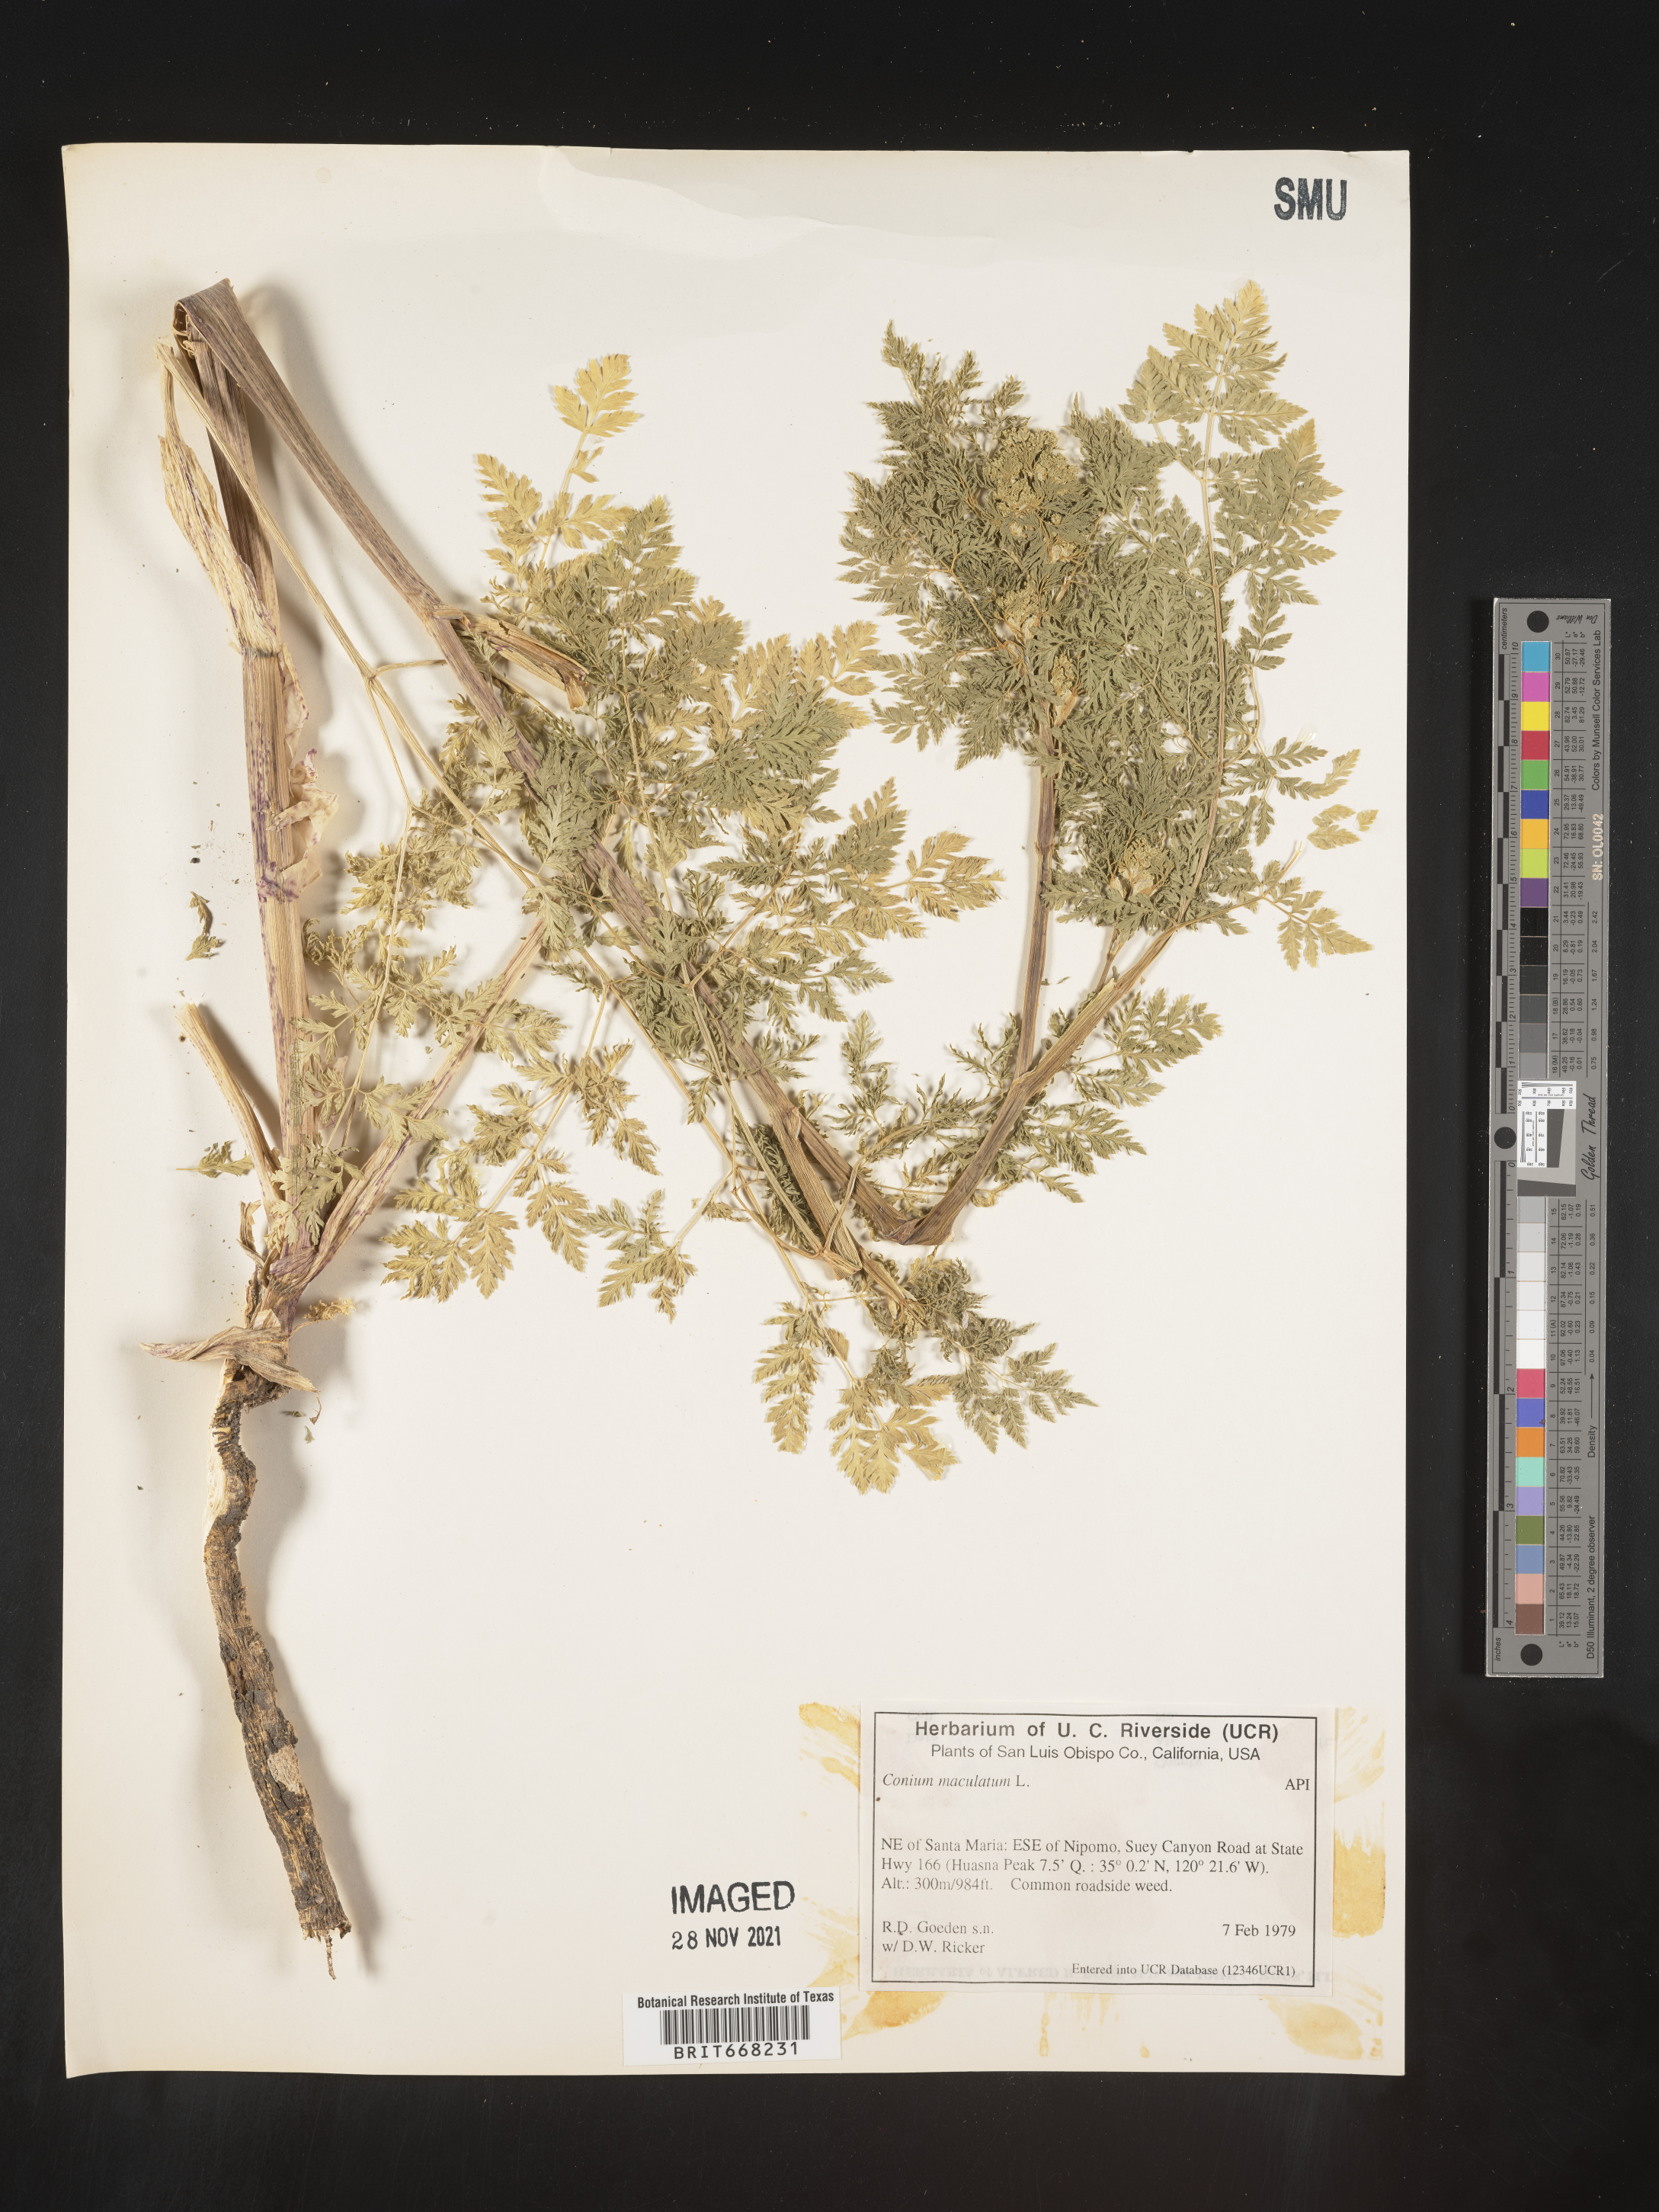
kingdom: Plantae
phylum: Tracheophyta
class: Magnoliopsida
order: Apiales
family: Apiaceae
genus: Conium
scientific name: Conium maculatum
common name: Hemlock
